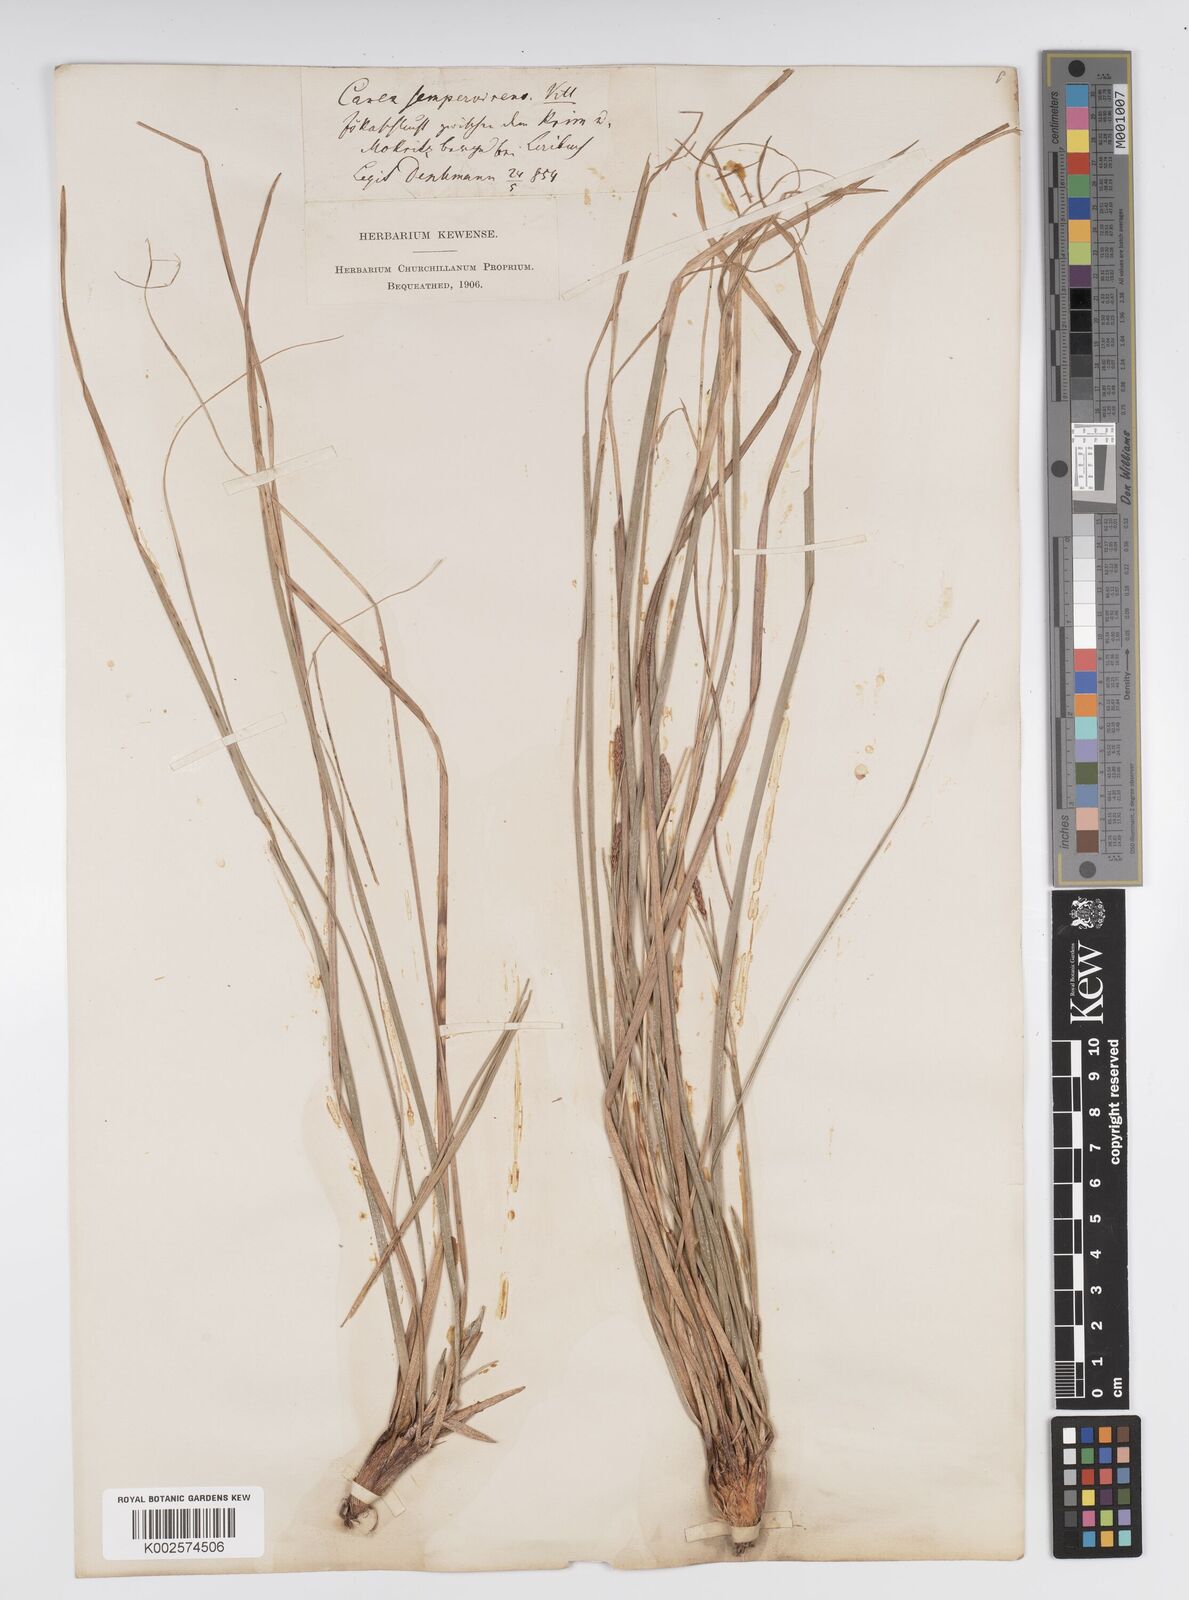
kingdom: Plantae
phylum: Tracheophyta
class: Liliopsida
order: Poales
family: Cyperaceae
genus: Carex
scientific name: Carex sempervirens
